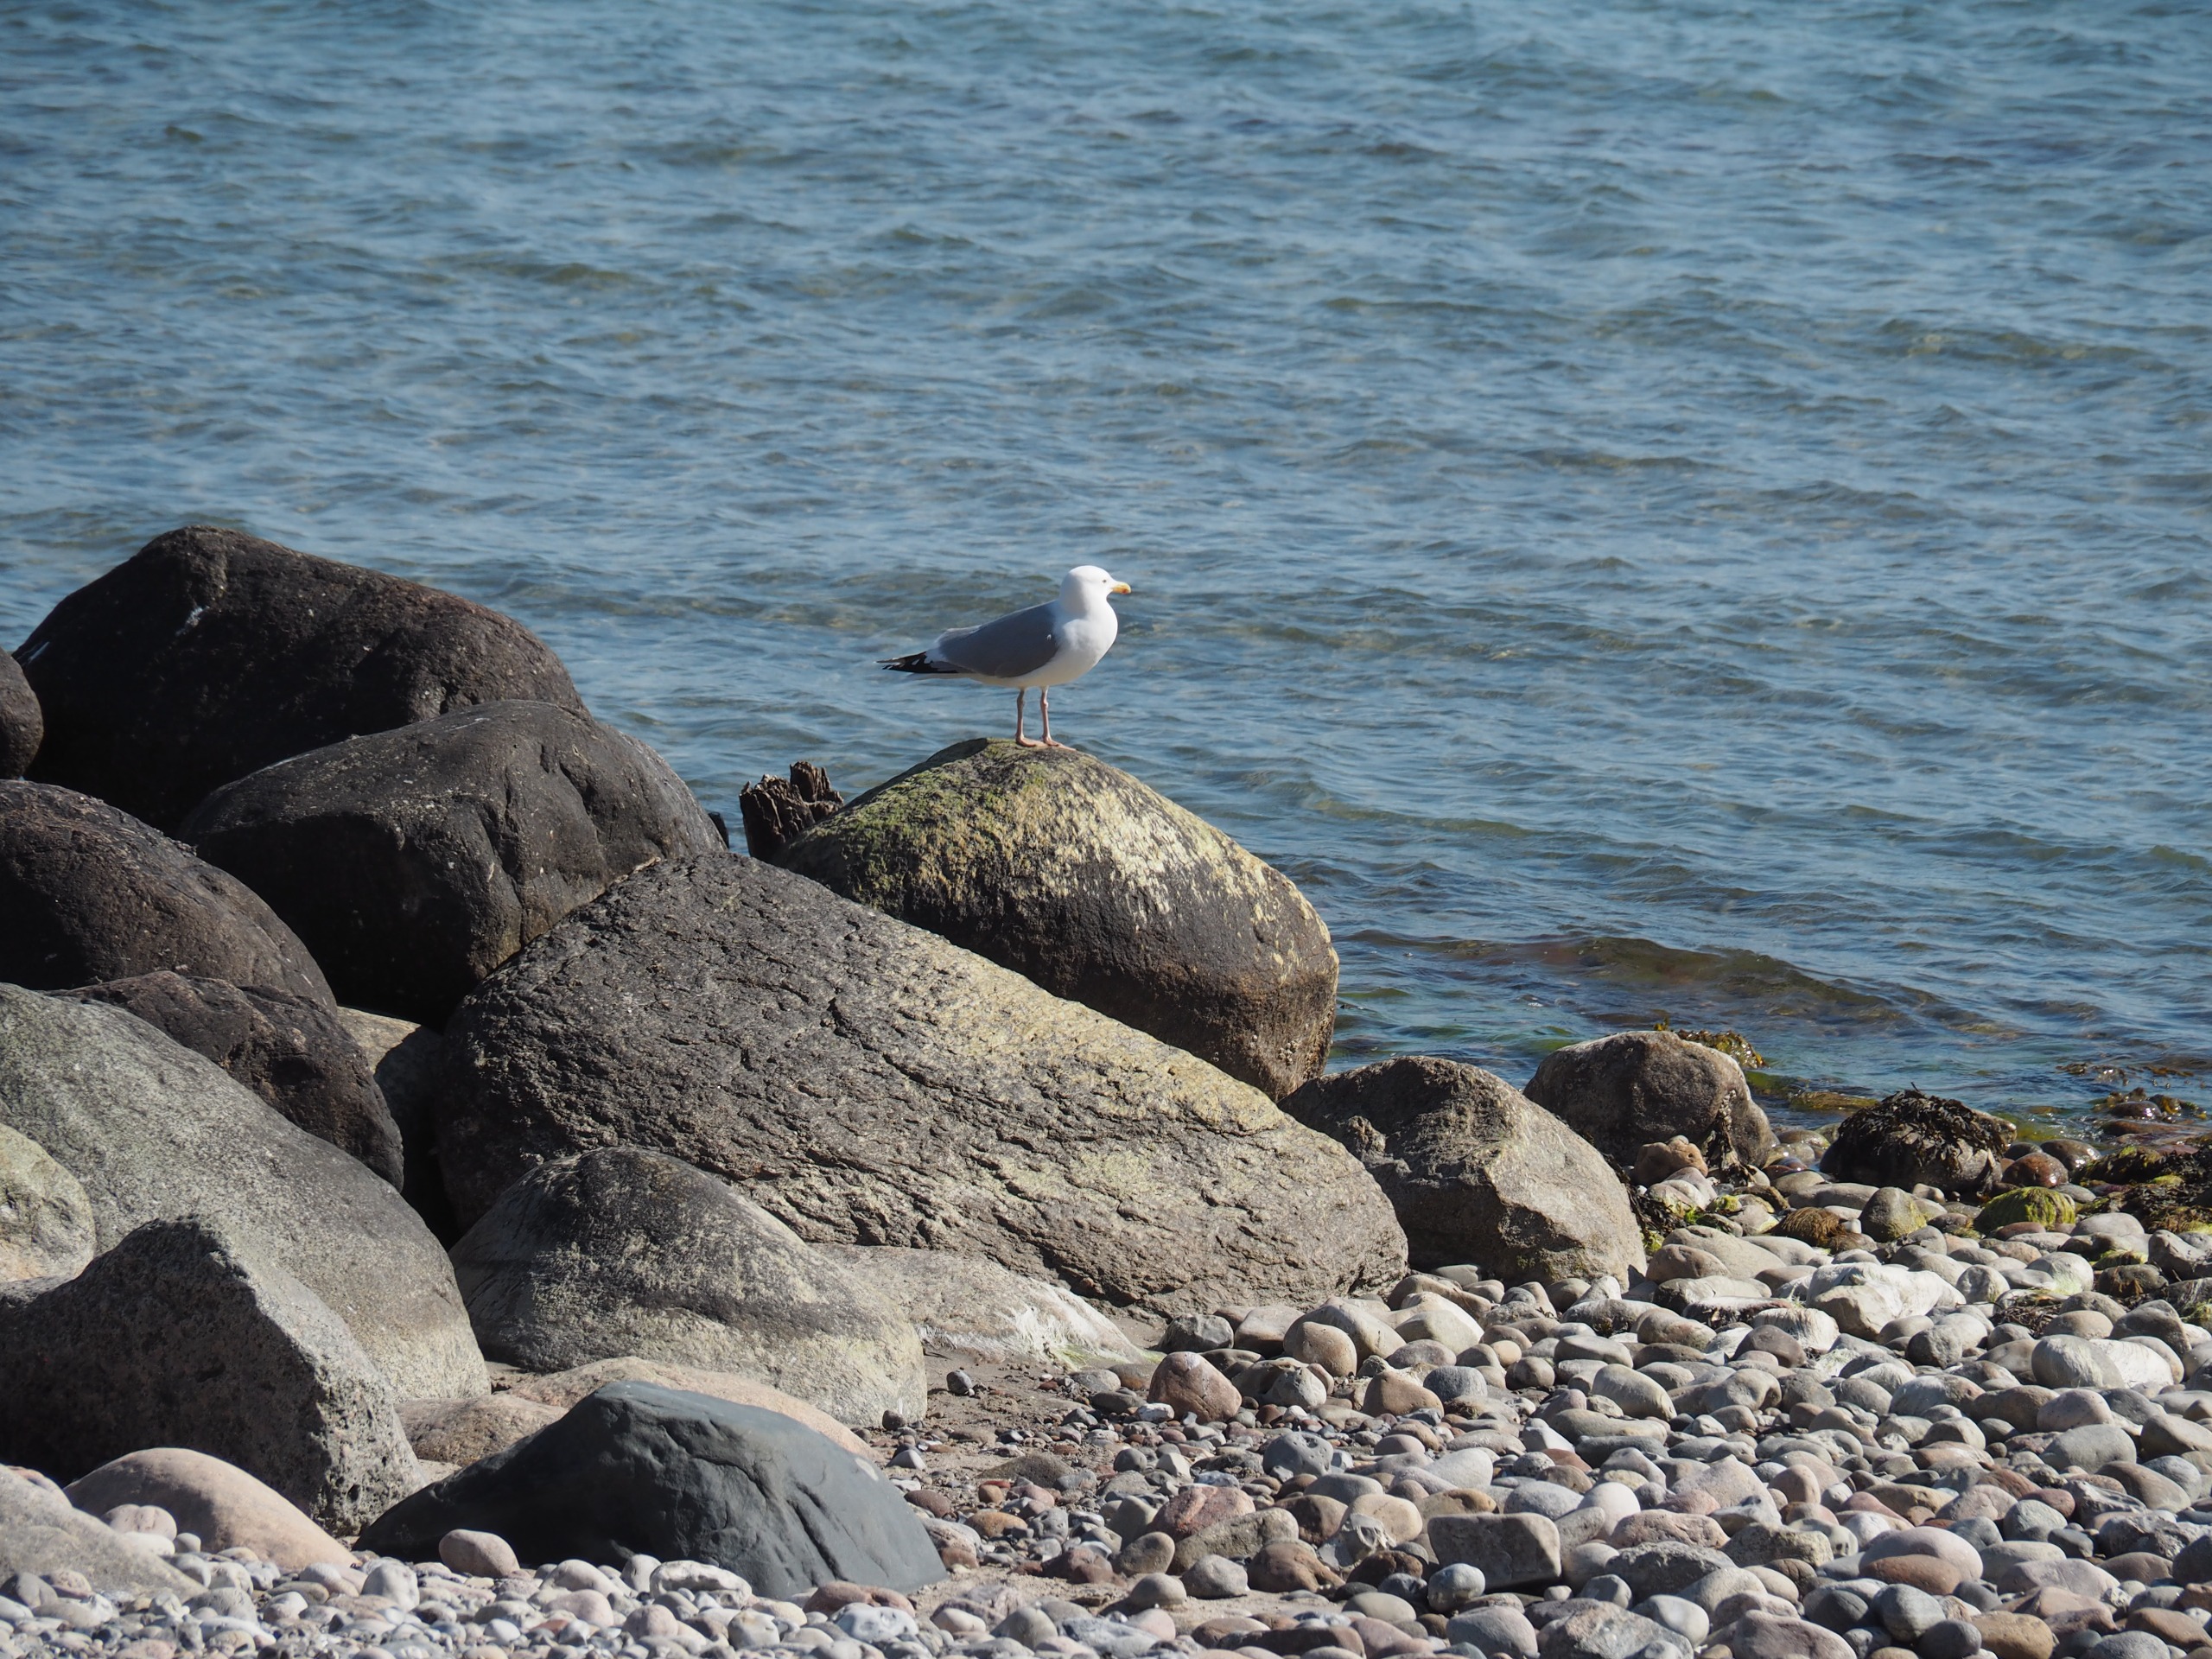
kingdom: Animalia
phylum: Chordata
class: Aves
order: Charadriiformes
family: Laridae
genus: Larus
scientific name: Larus argentatus
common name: Sølvmåge
